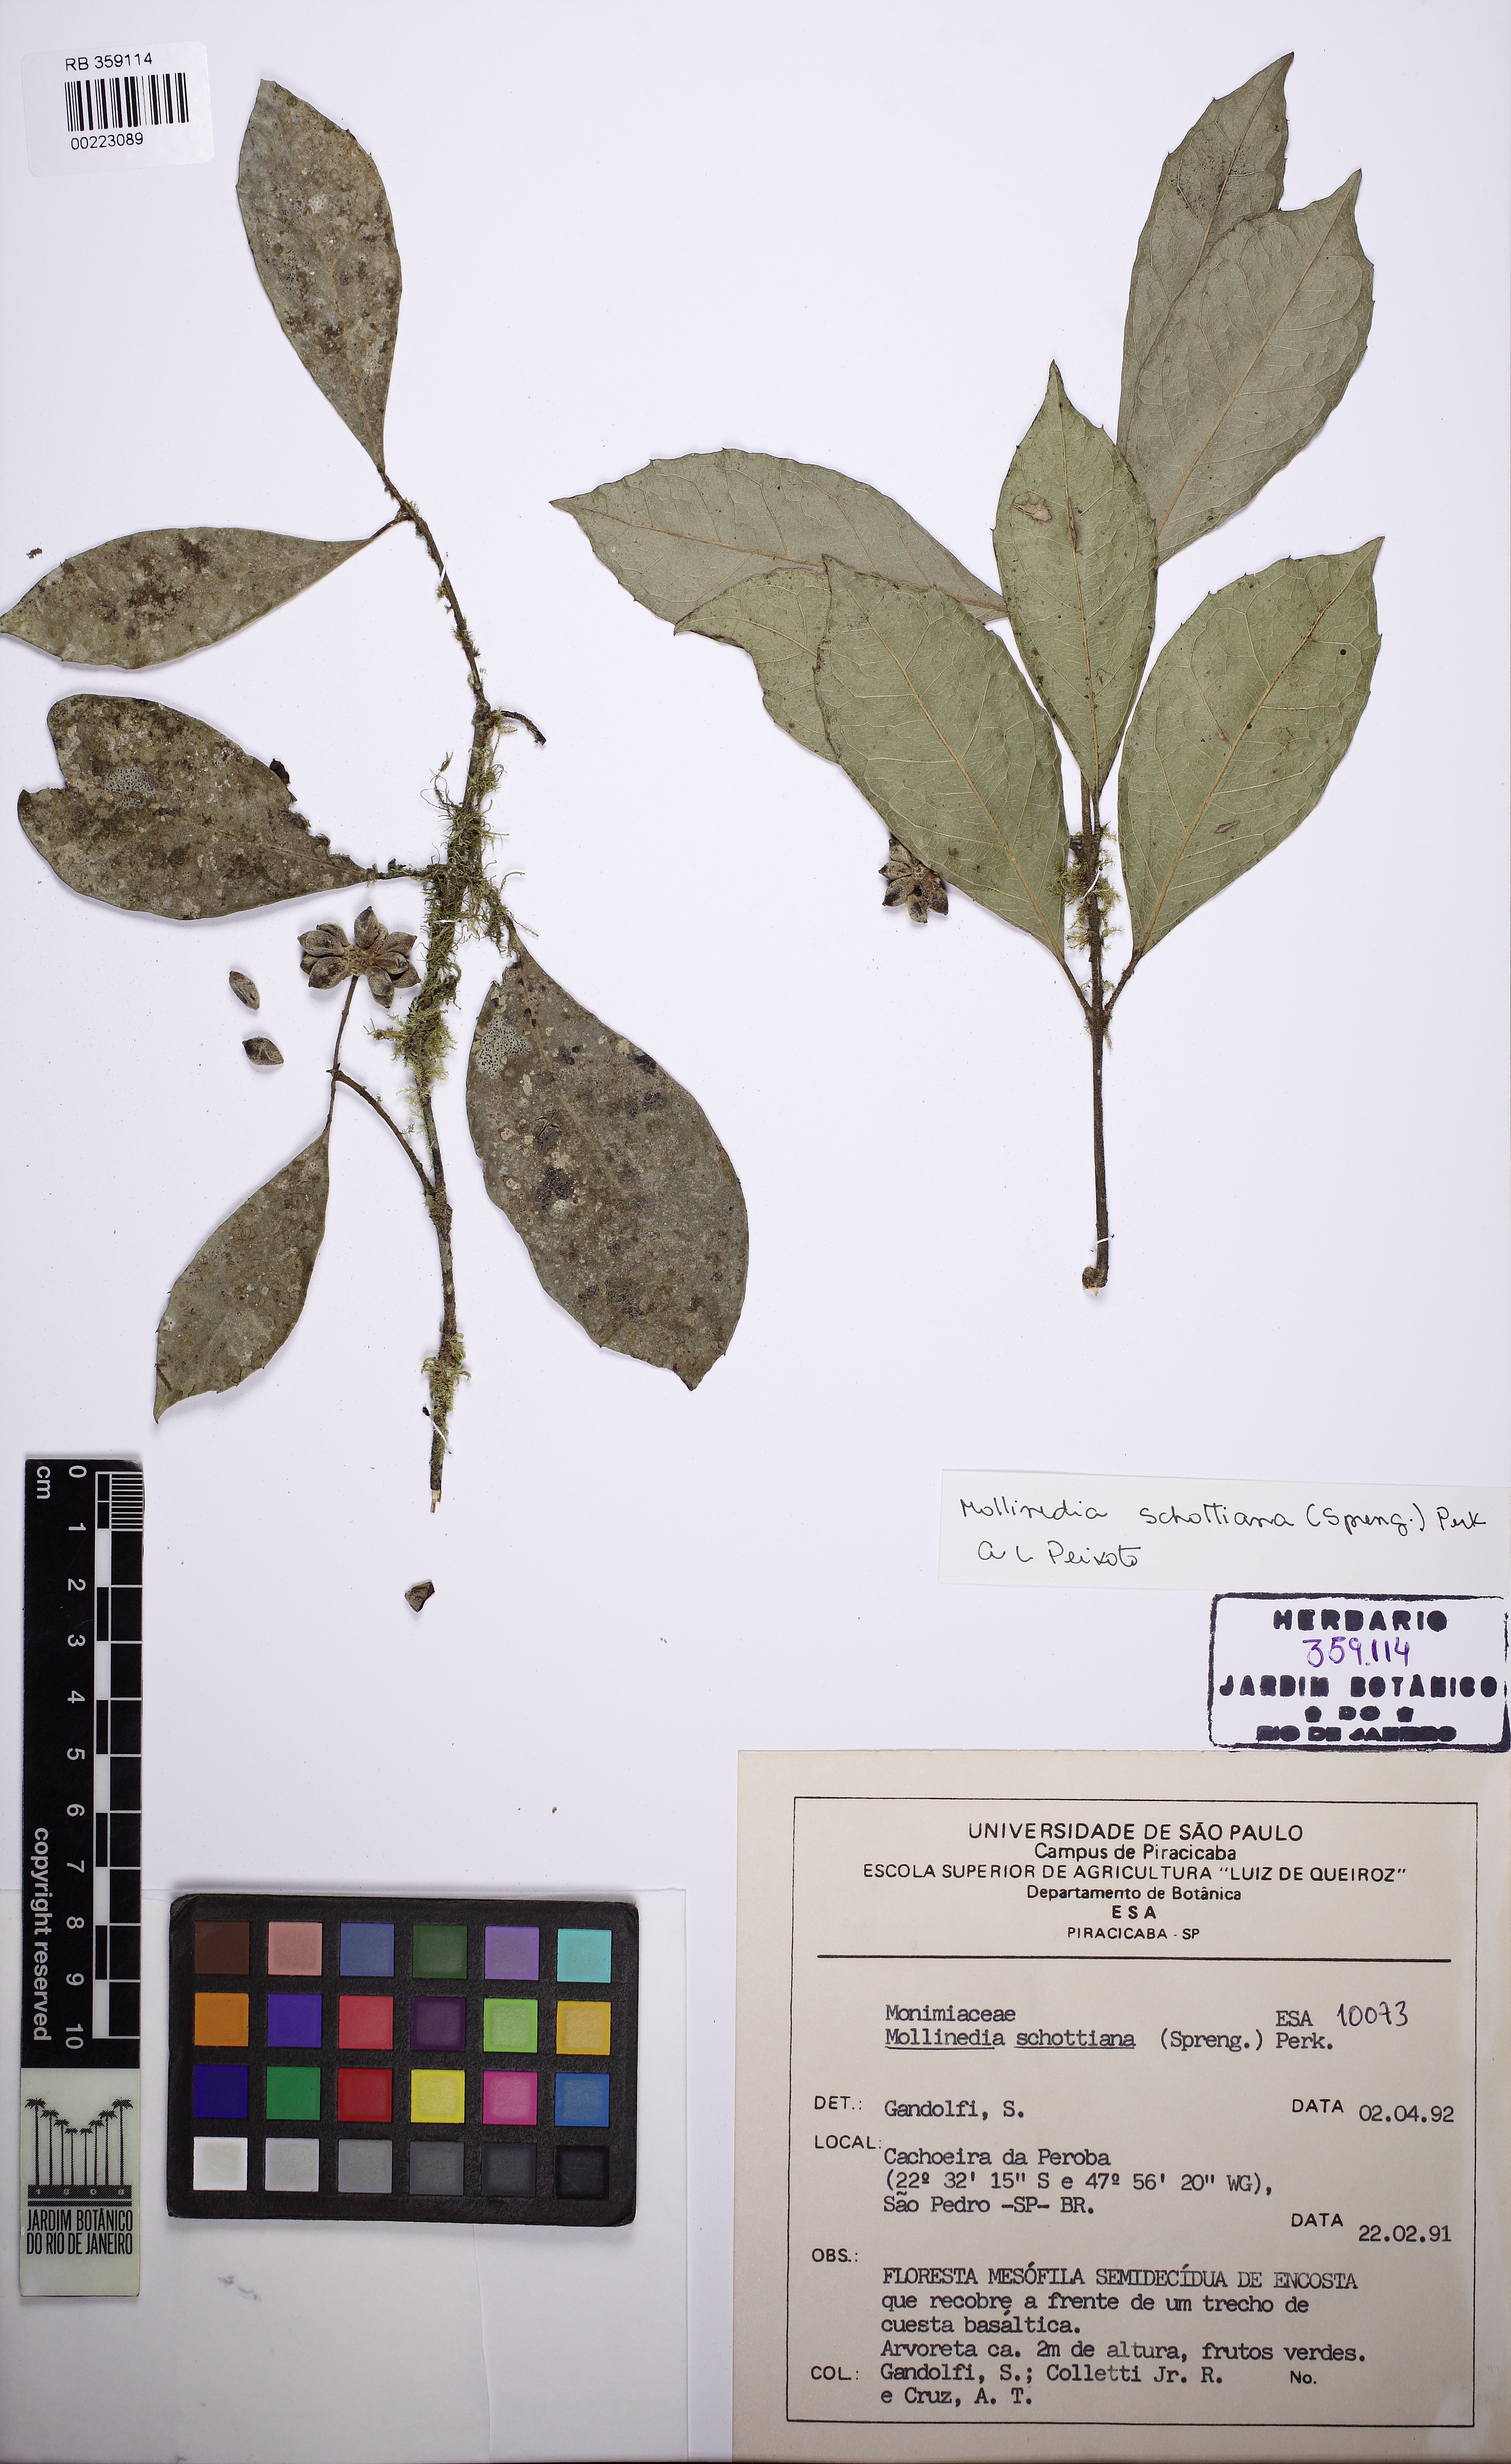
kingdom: Plantae
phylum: Tracheophyta
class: Magnoliopsida
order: Laurales
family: Monimiaceae
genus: Mollinedia
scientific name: Mollinedia umbellata
